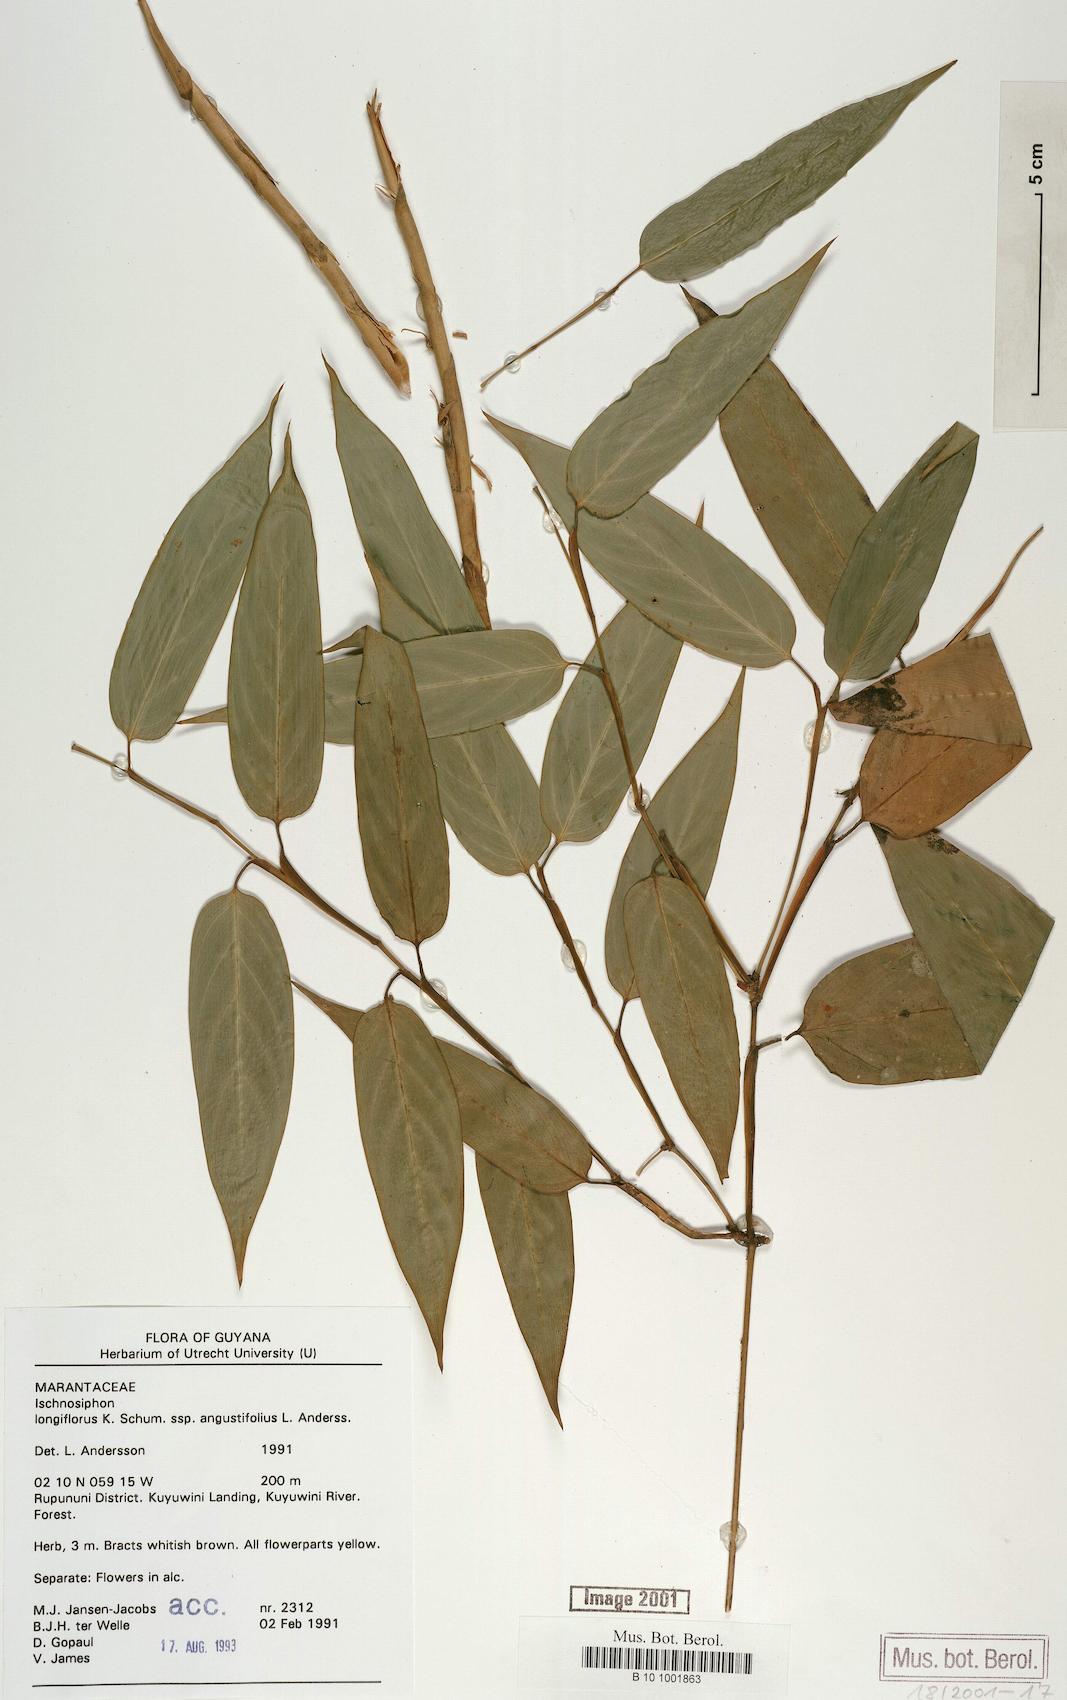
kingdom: Plantae
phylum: Tracheophyta
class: Liliopsida
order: Zingiberales
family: Marantaceae
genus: Ischnosiphon
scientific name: Ischnosiphon longiflorus
